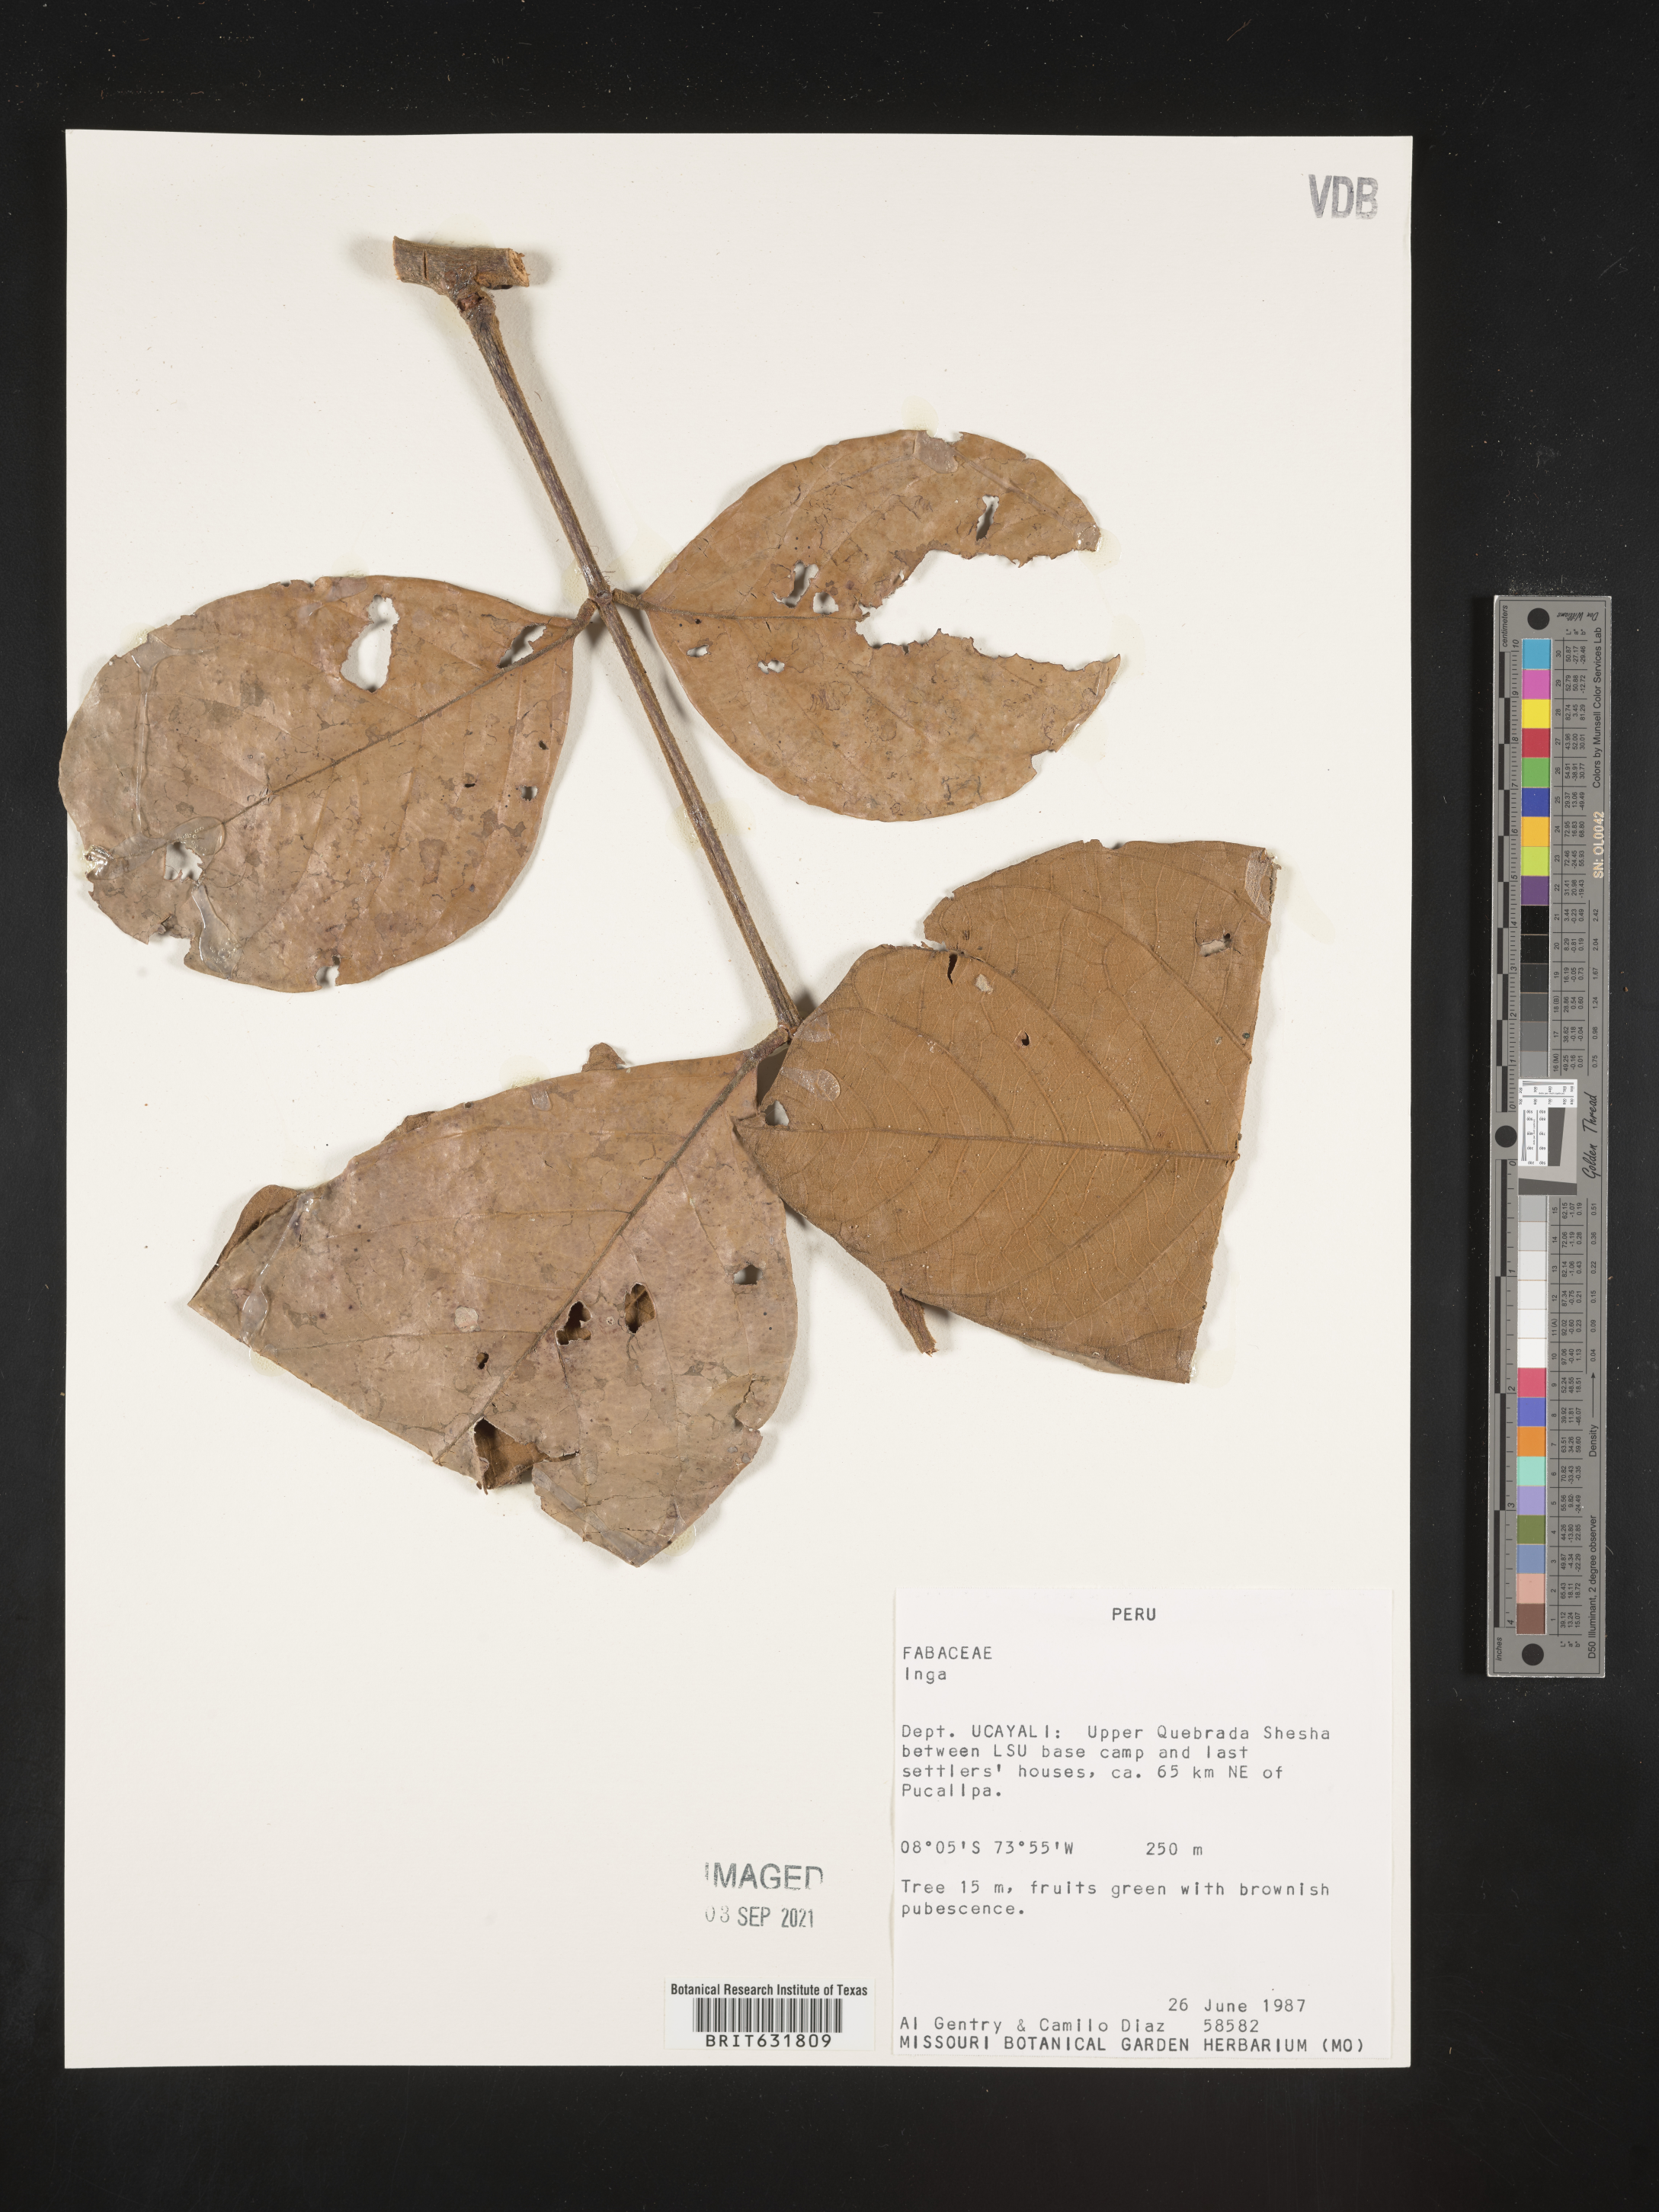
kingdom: Plantae
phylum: Tracheophyta
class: Magnoliopsida
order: Fabales
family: Fabaceae
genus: Inga
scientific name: Inga
